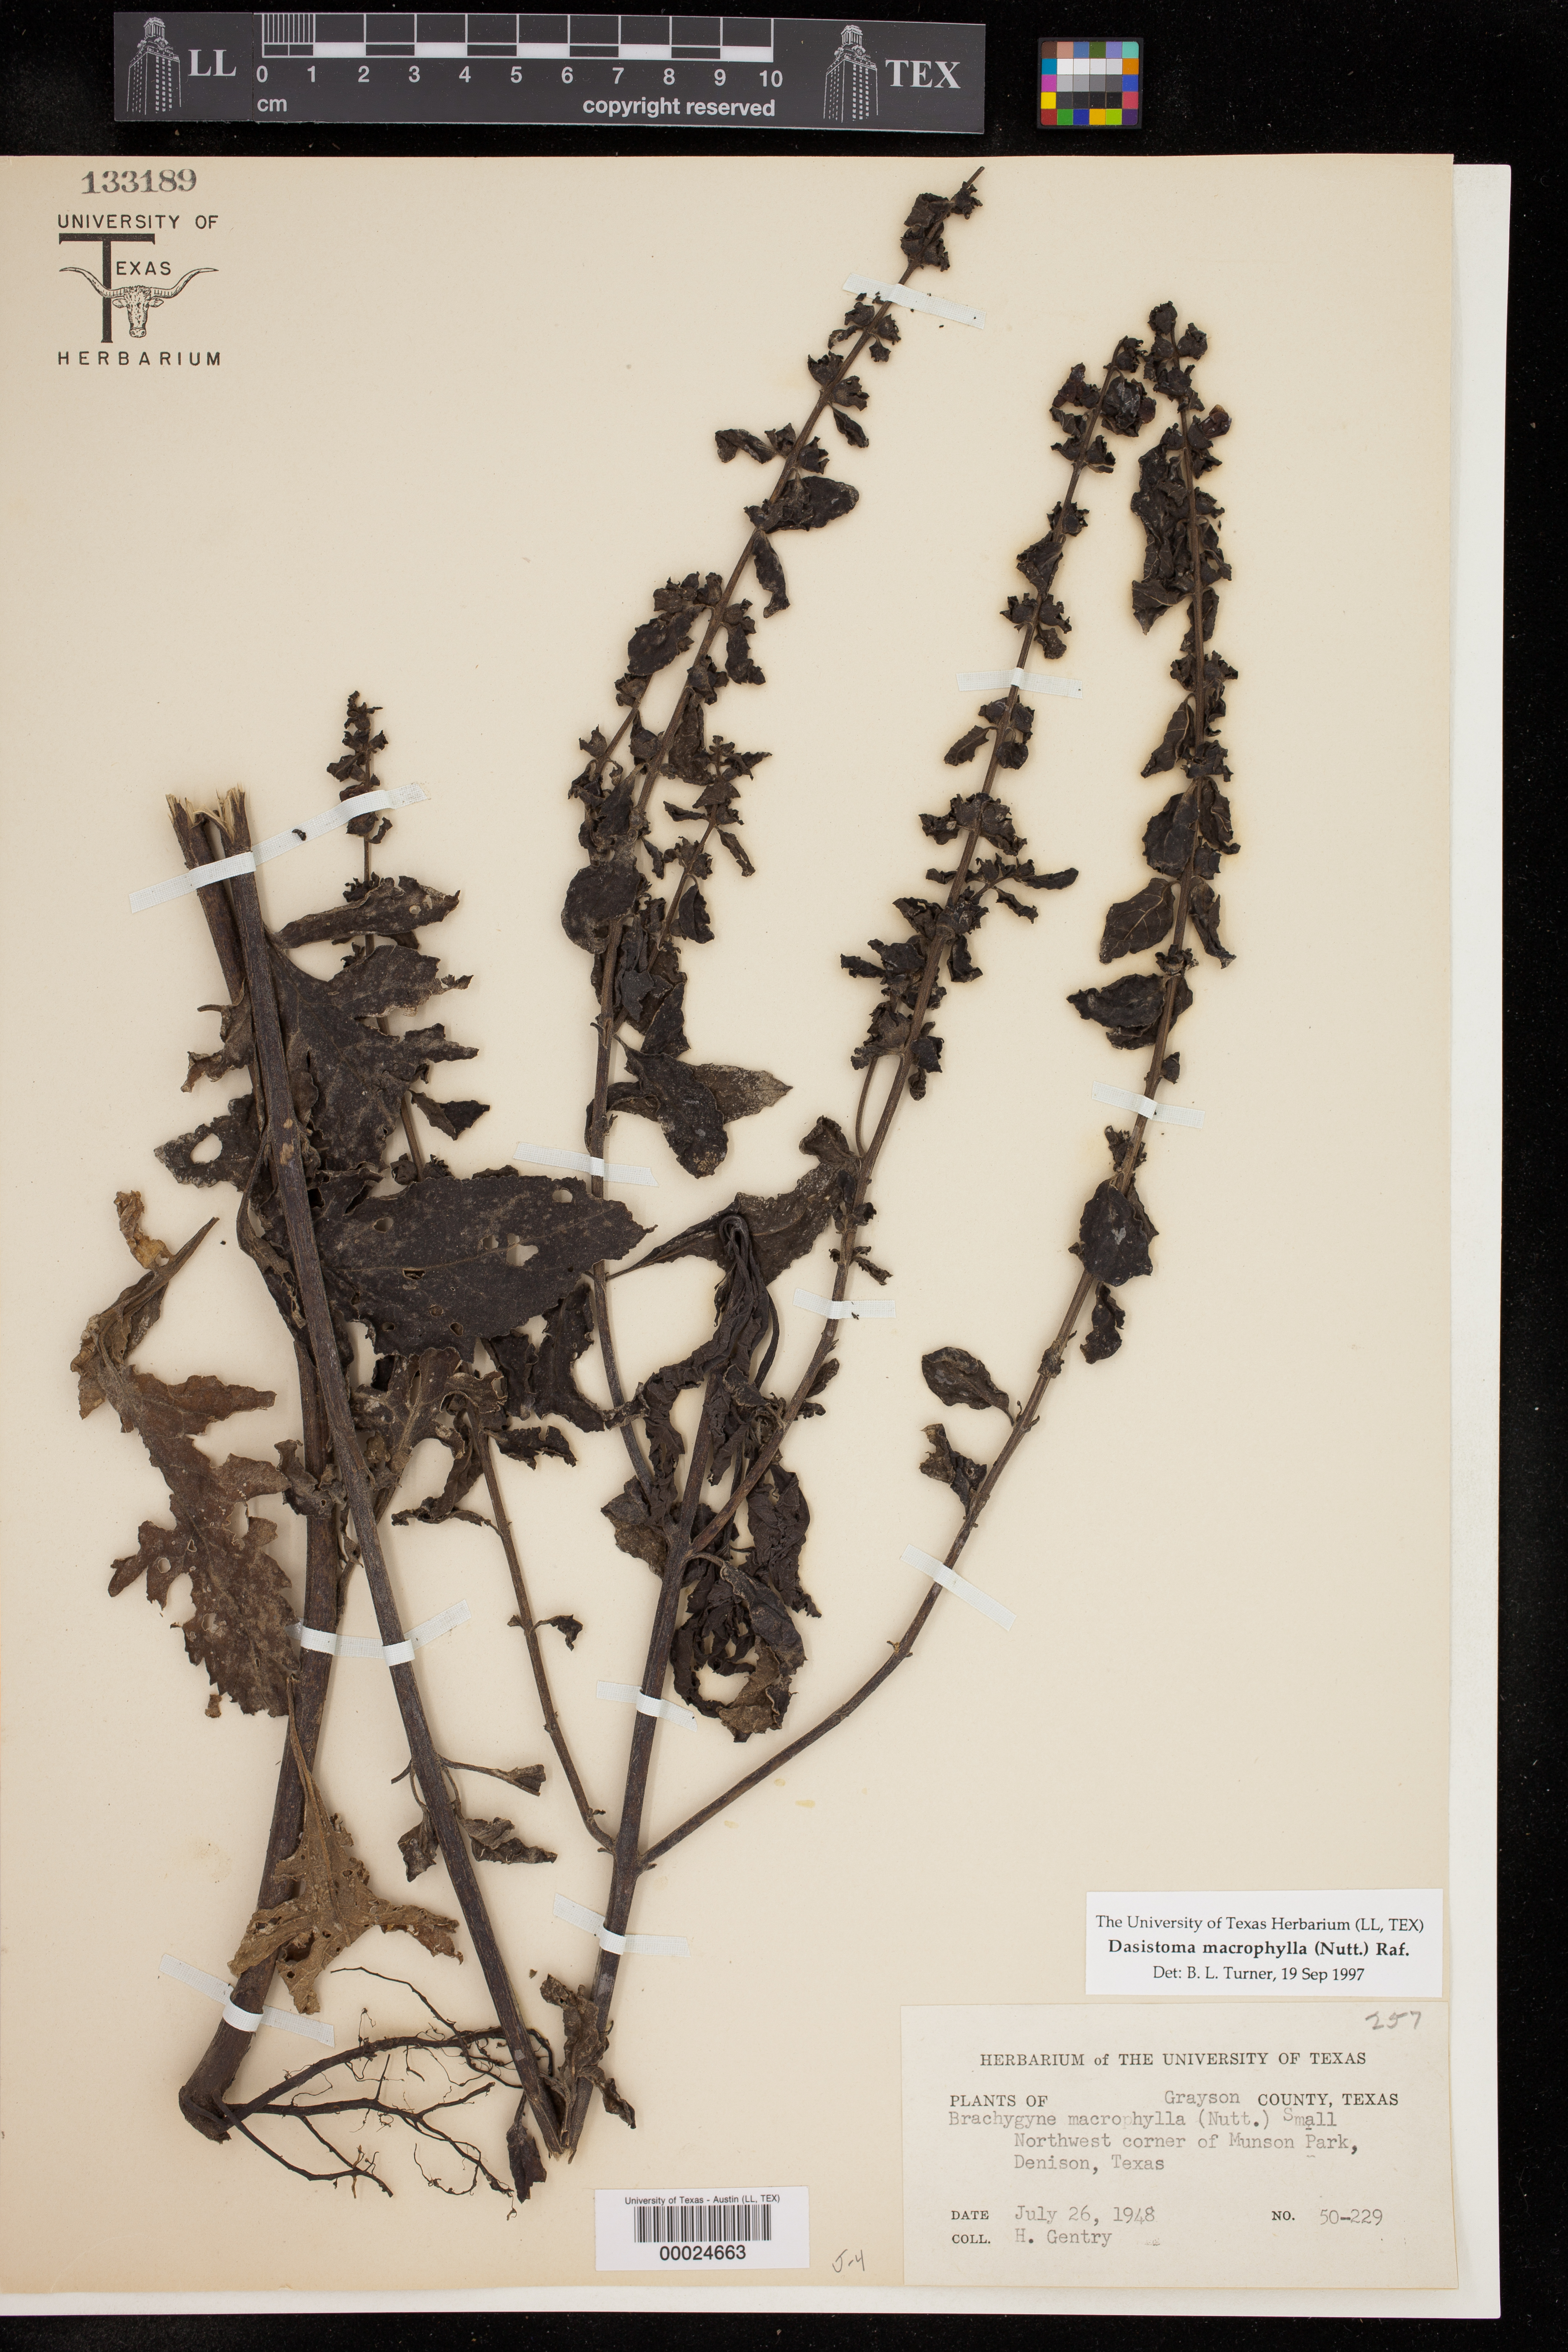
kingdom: Plantae
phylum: Tracheophyta
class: Magnoliopsida
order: Lamiales
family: Orobanchaceae
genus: Dasistoma
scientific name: Dasistoma macrophyllum
